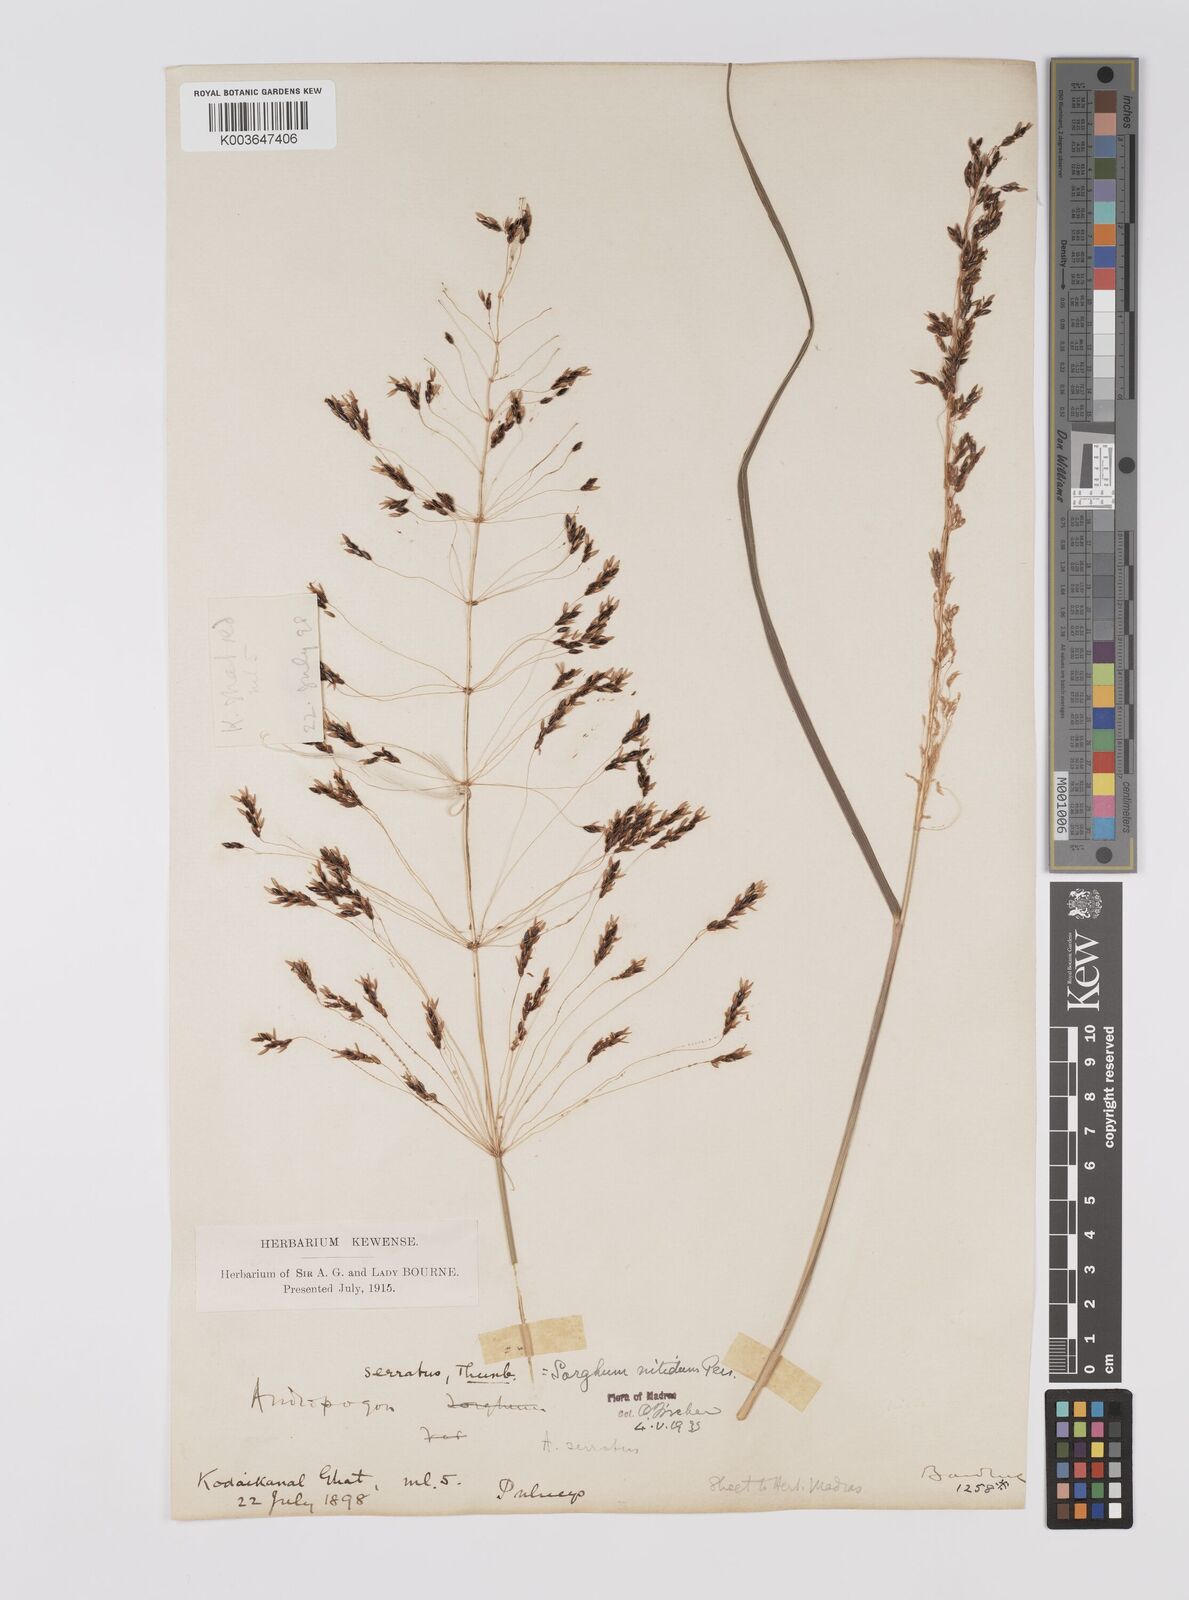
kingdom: Plantae
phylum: Tracheophyta
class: Liliopsida
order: Poales
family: Poaceae
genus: Sorghum
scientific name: Sorghum nitidum
